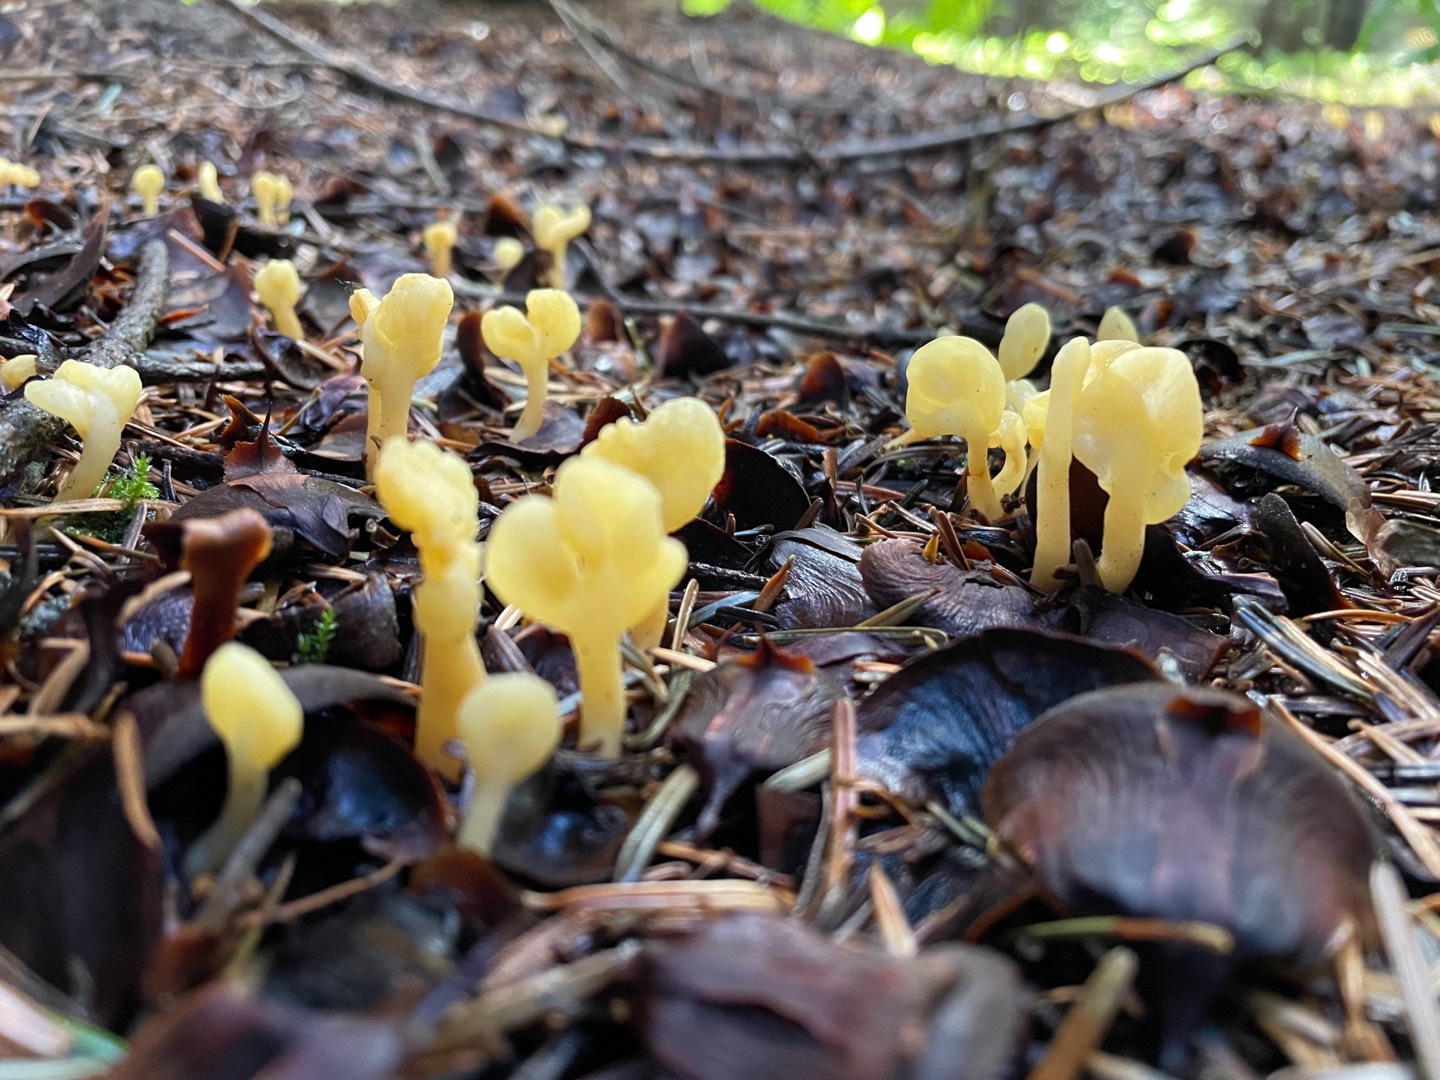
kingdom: Fungi
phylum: Ascomycota
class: Leotiomycetes
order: Rhytismatales
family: Cudoniaceae
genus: Spathularia
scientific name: Spathularia flavida
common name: Gul spatelsvamp
